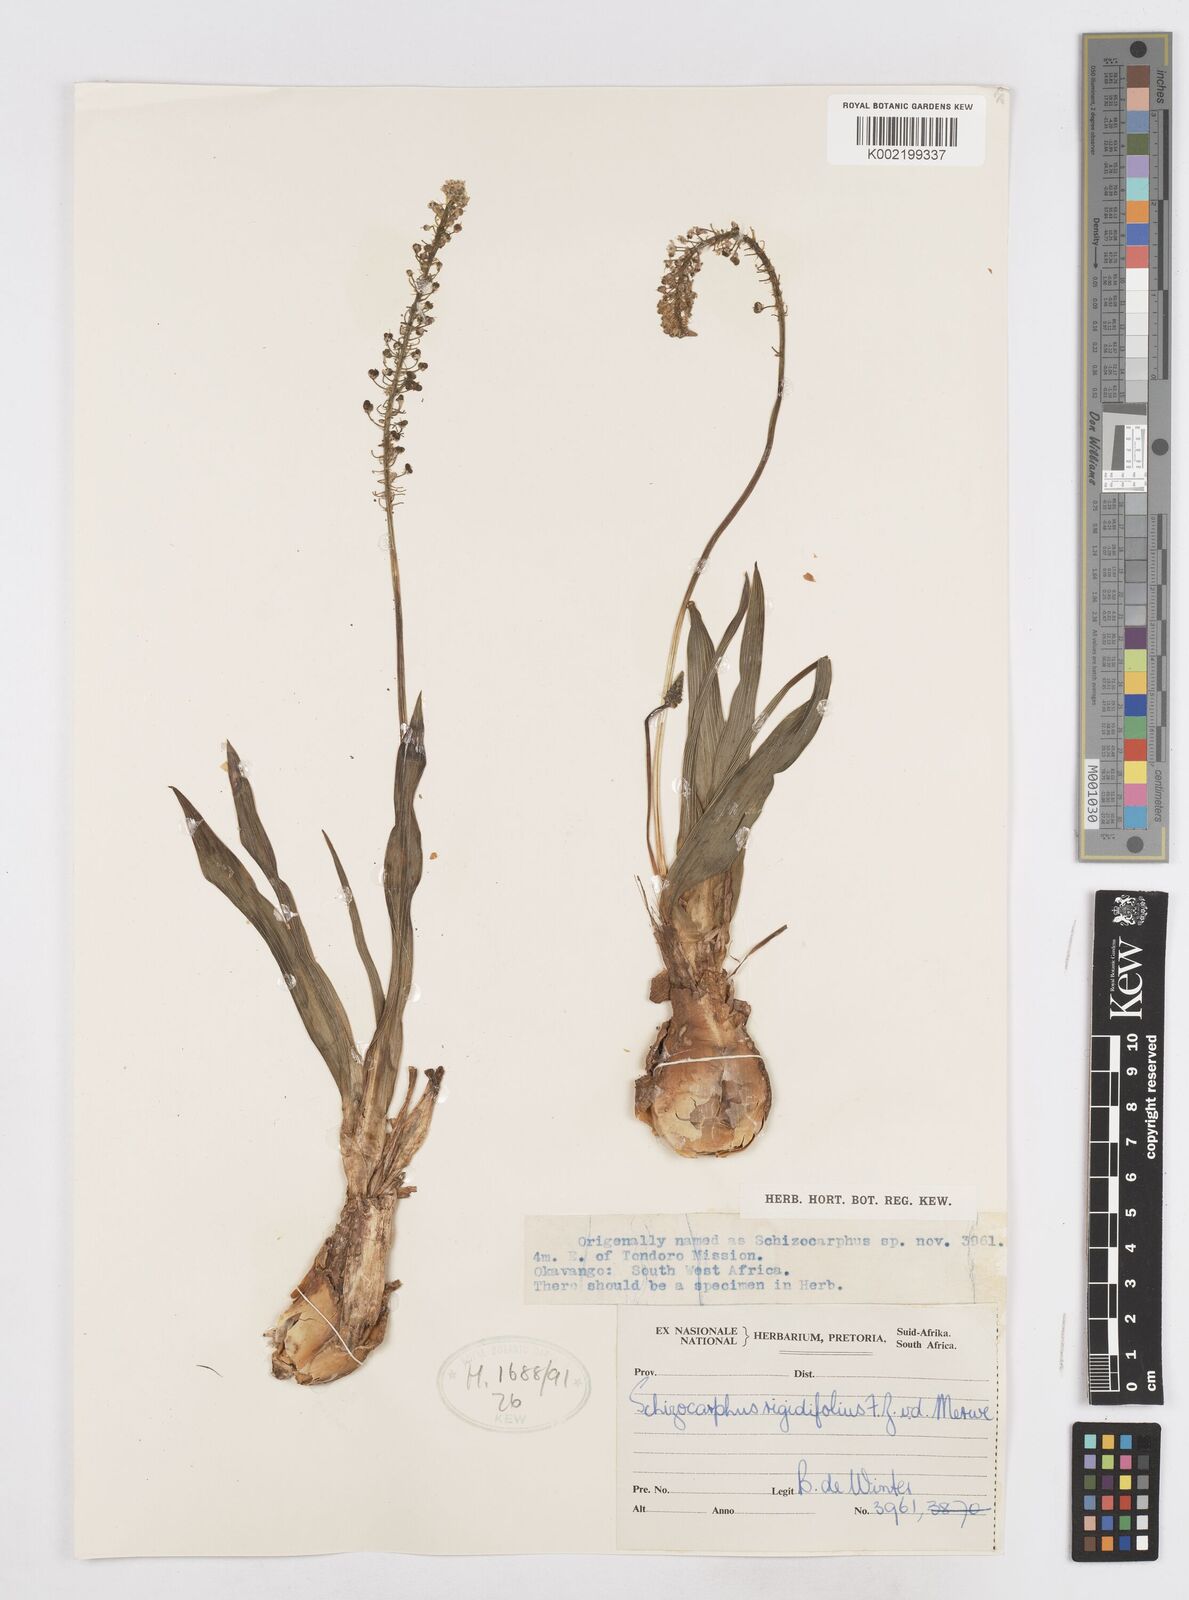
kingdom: Plantae
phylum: Tracheophyta
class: Liliopsida
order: Asparagales
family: Asparagaceae
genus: Schizocarphus
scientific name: Schizocarphus nervosus
